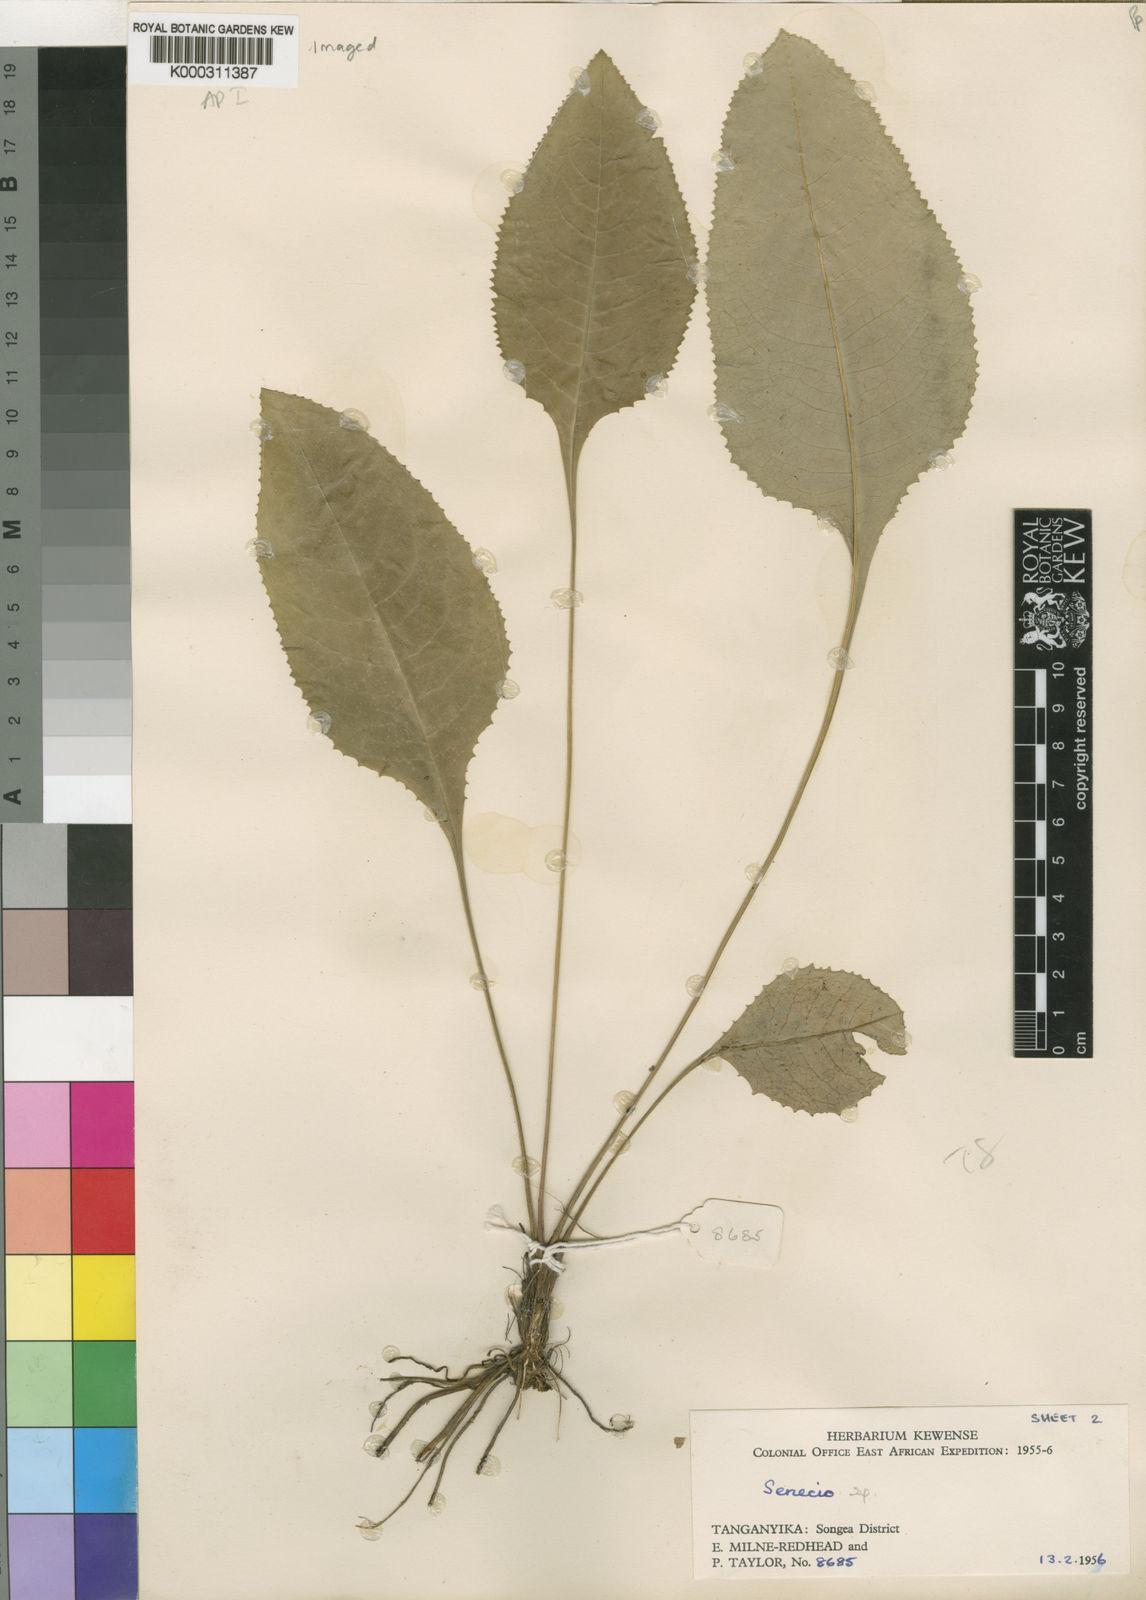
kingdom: Plantae
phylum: Tracheophyta
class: Magnoliopsida
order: Asterales
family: Asteraceae
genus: Senecio
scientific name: Senecio exarachnoideus
